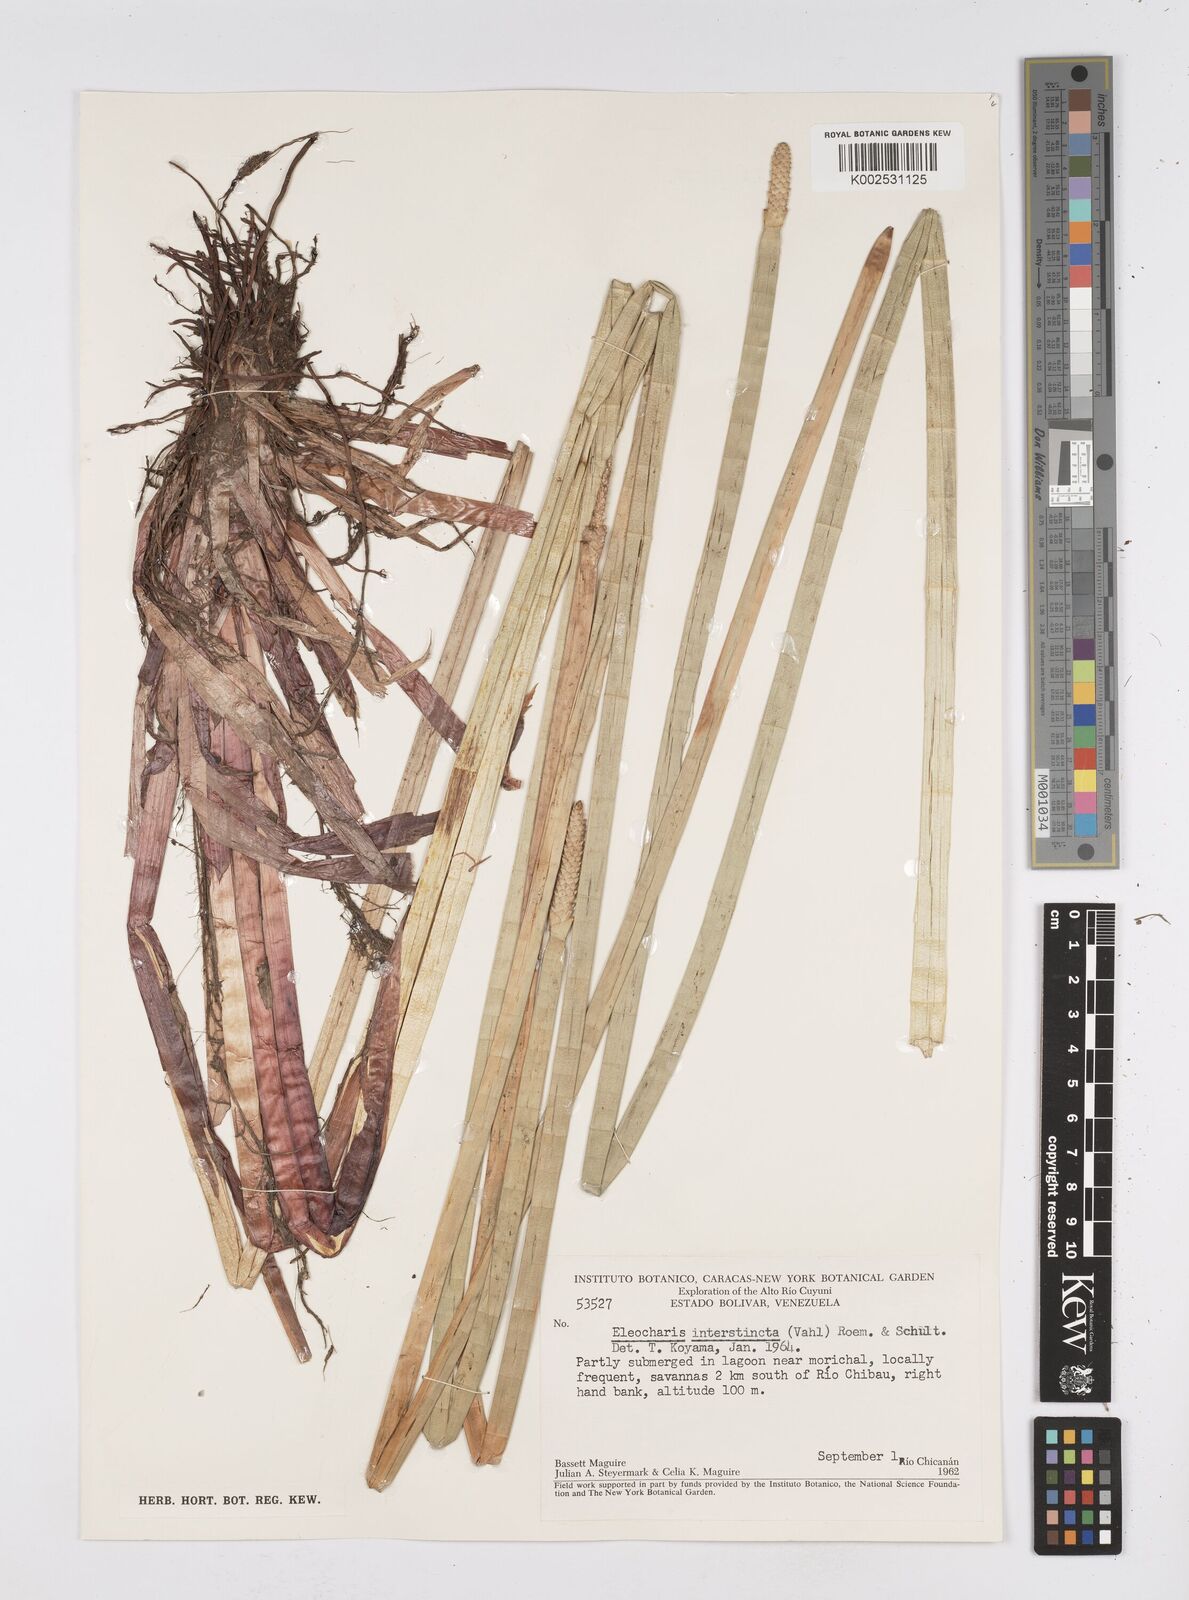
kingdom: Plantae
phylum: Tracheophyta
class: Liliopsida
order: Poales
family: Cyperaceae
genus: Eleocharis
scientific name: Eleocharis interstincta
